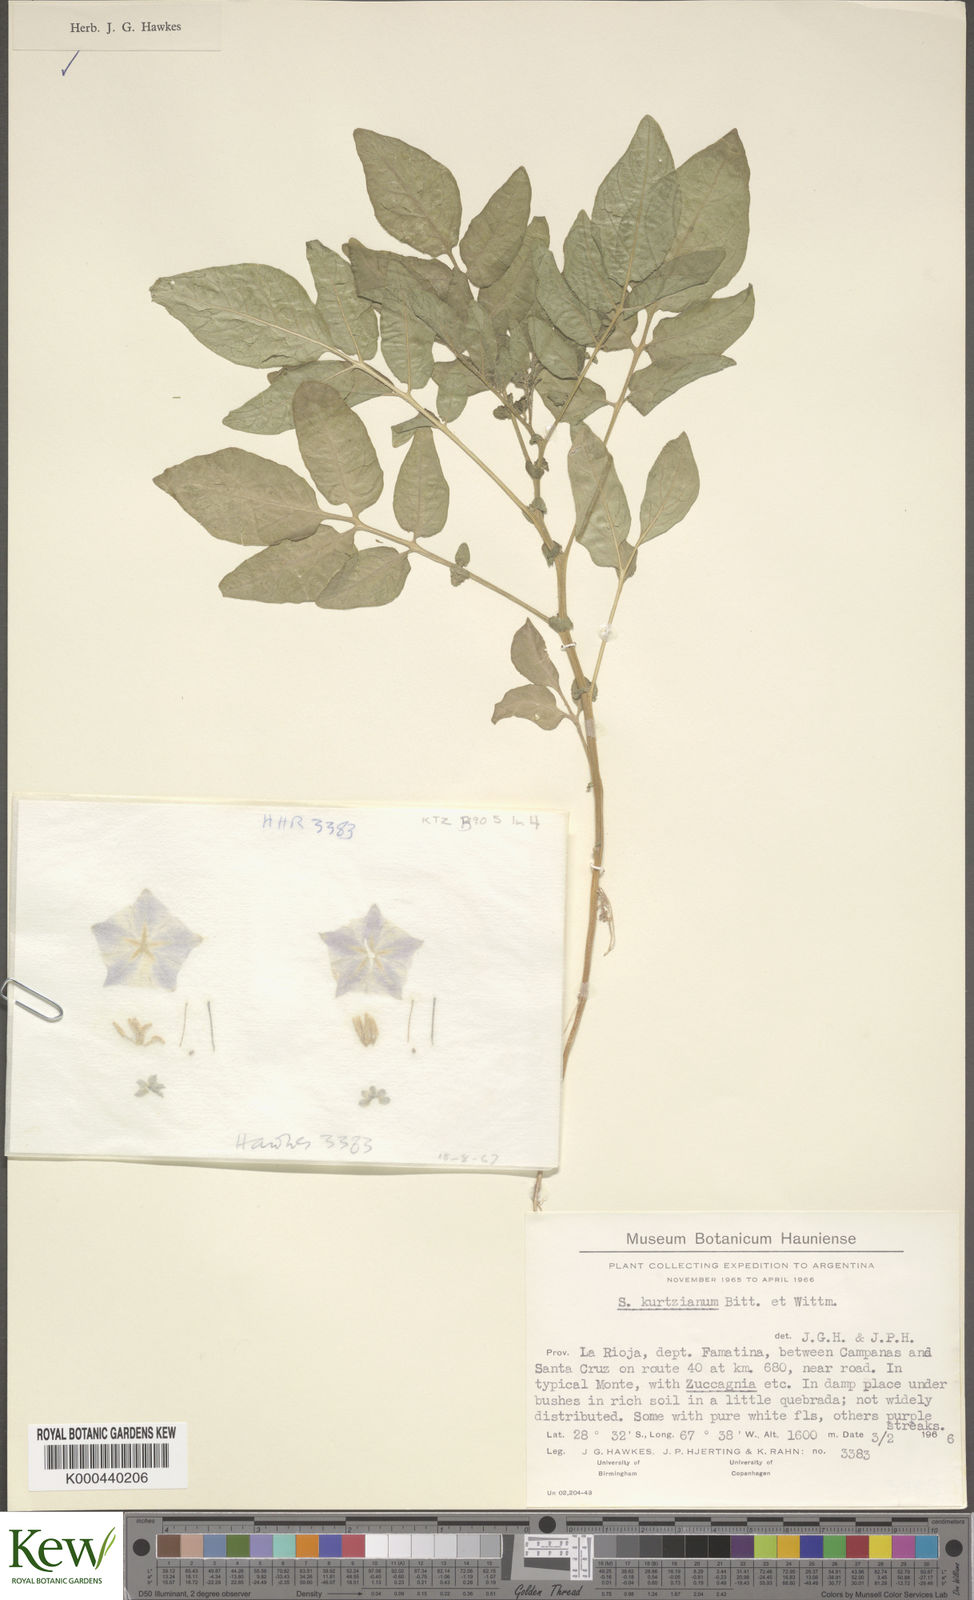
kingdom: Plantae
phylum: Tracheophyta
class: Magnoliopsida
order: Solanales
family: Solanaceae
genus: Solanum
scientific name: Solanum kurtzianum
